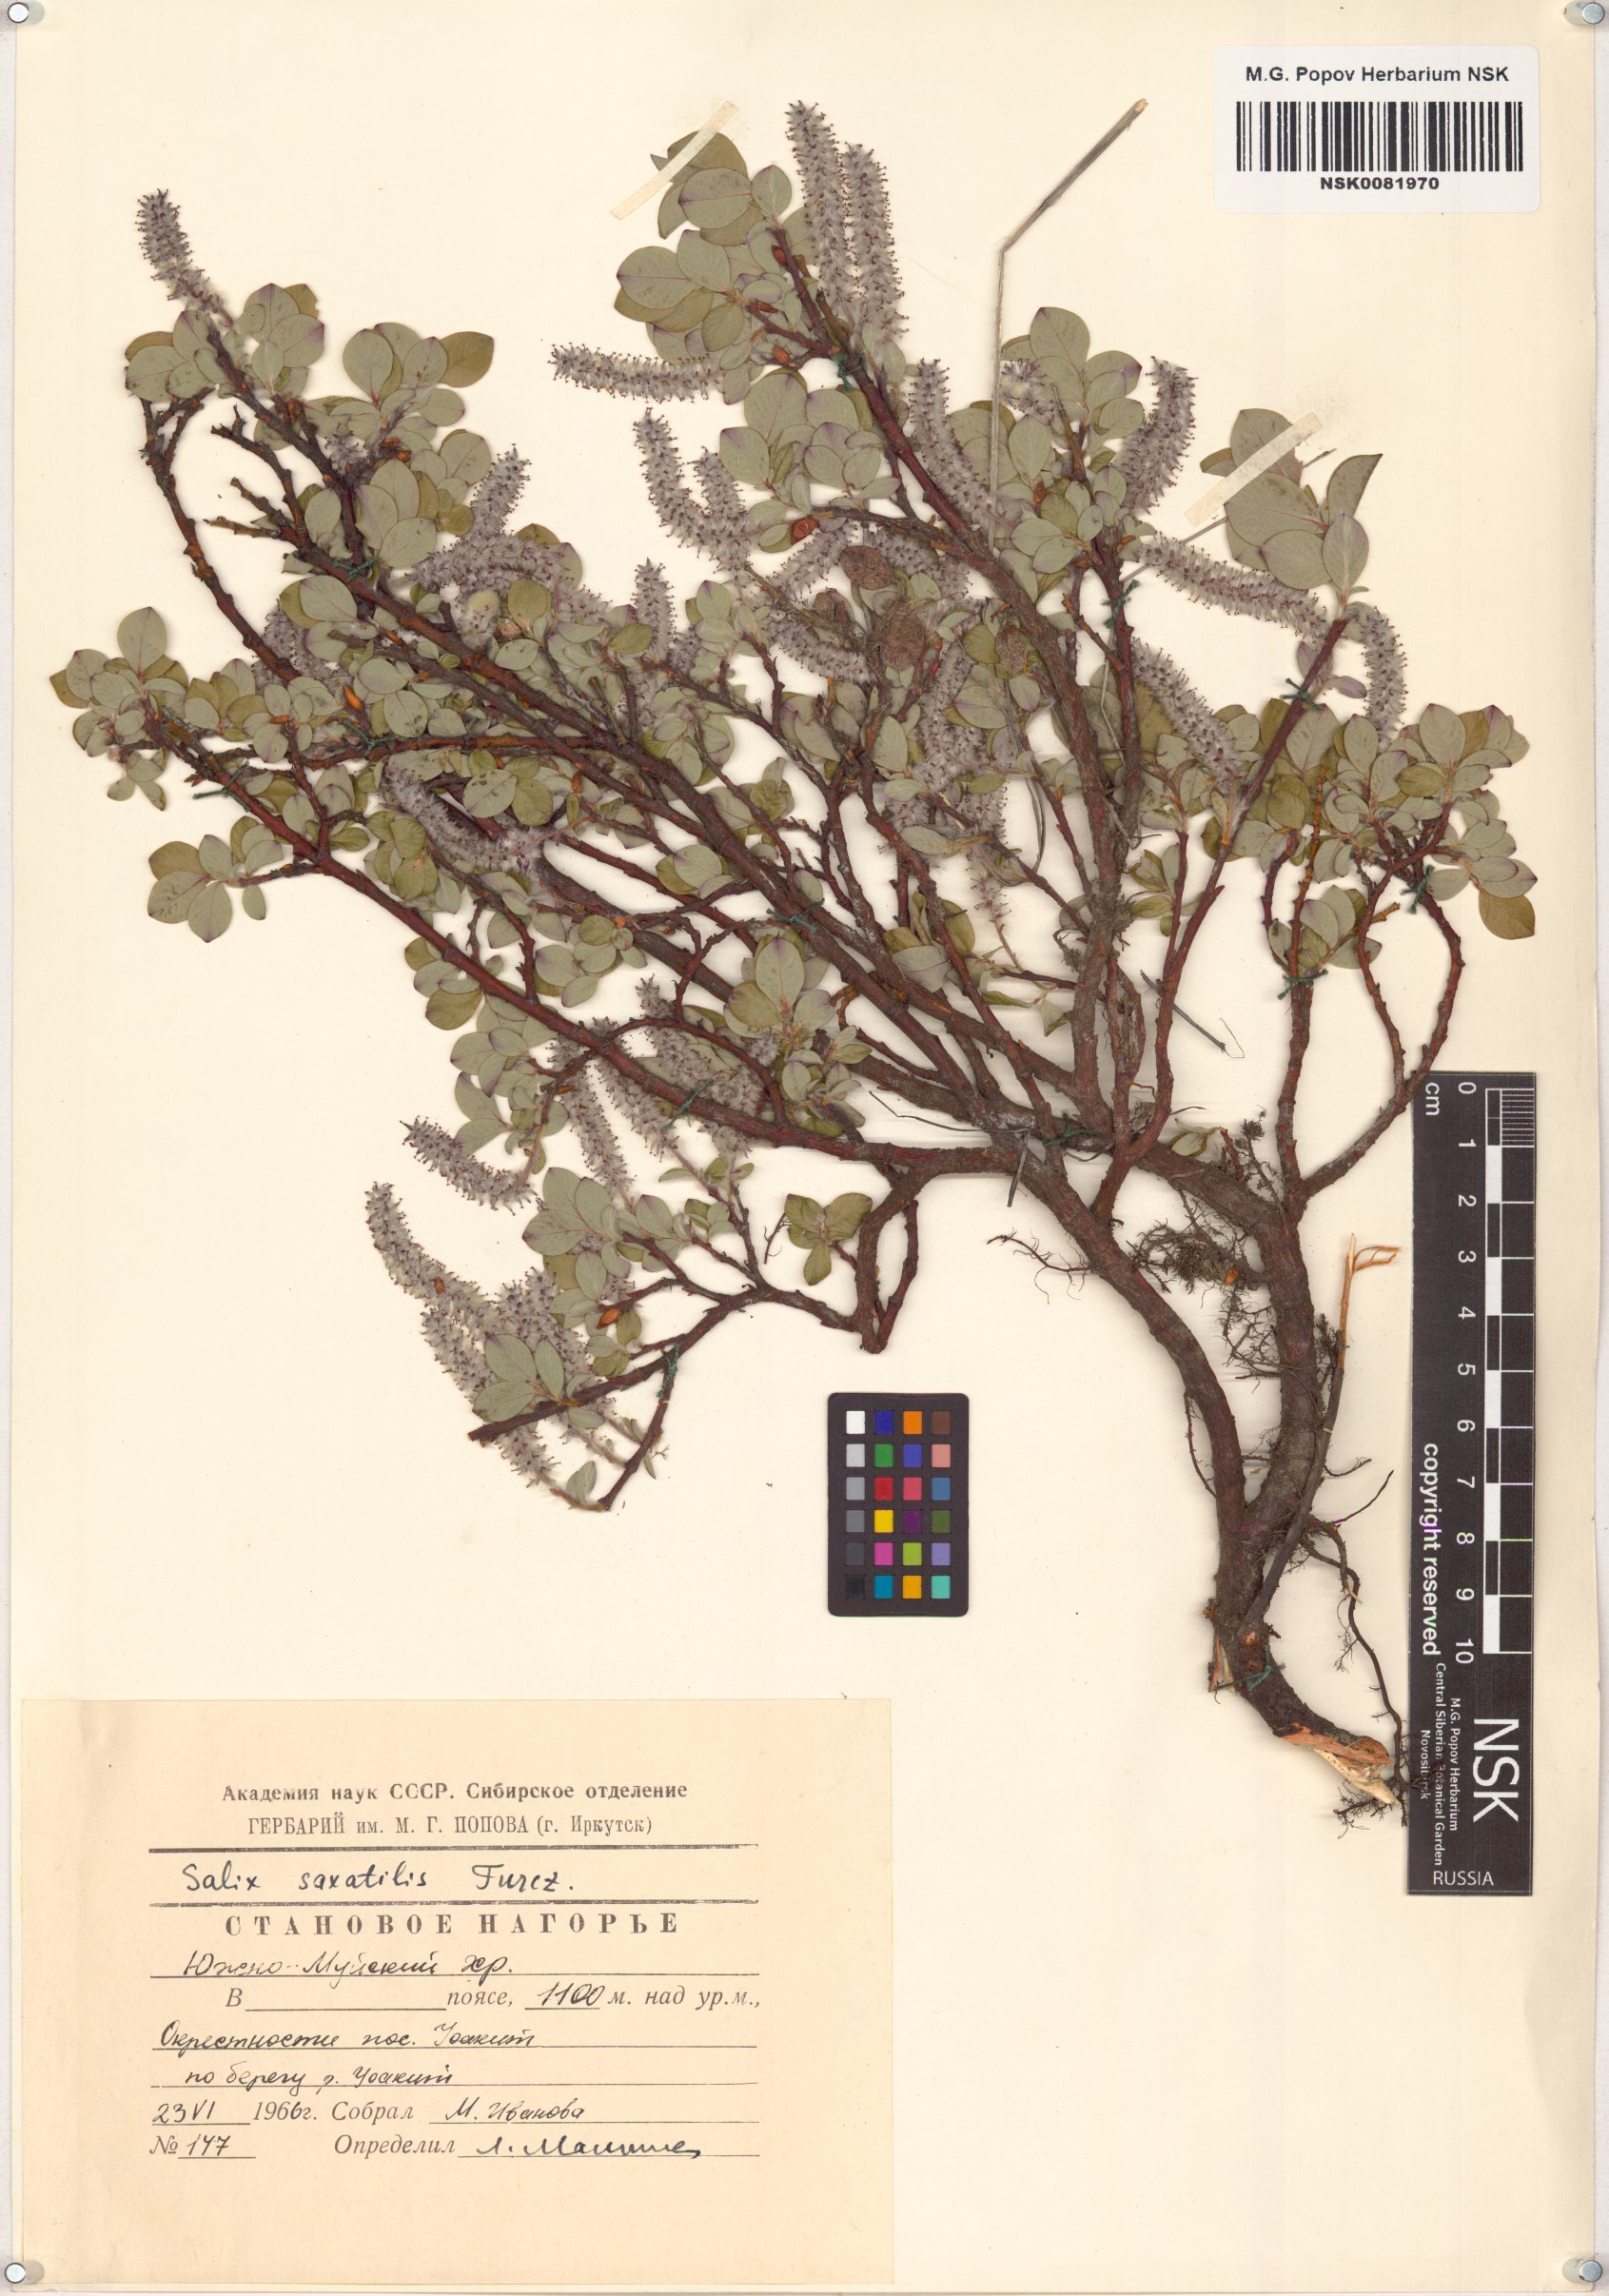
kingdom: Plantae
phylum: Tracheophyta
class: Magnoliopsida
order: Malpighiales
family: Salicaceae
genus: Salix
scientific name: Salix saxatilis
